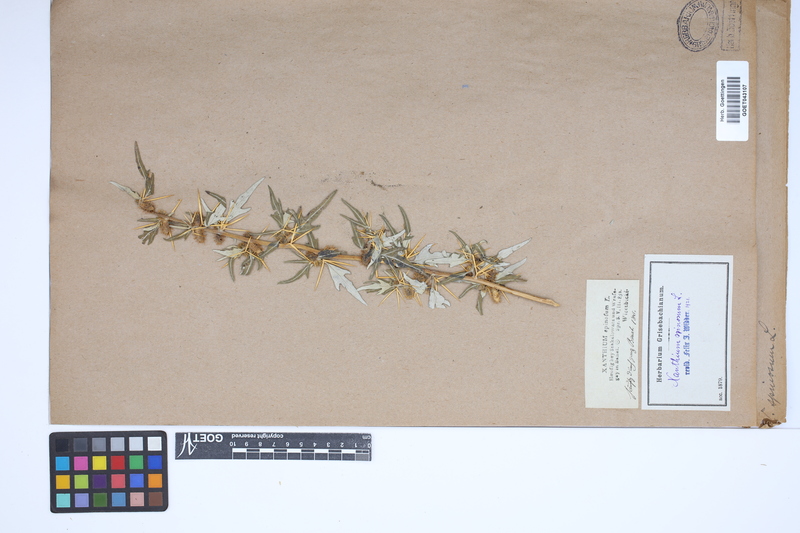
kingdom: Plantae
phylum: Tracheophyta
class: Magnoliopsida
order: Asterales
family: Asteraceae
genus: Xanthium
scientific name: Xanthium spinosum
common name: Spiny cocklebur
